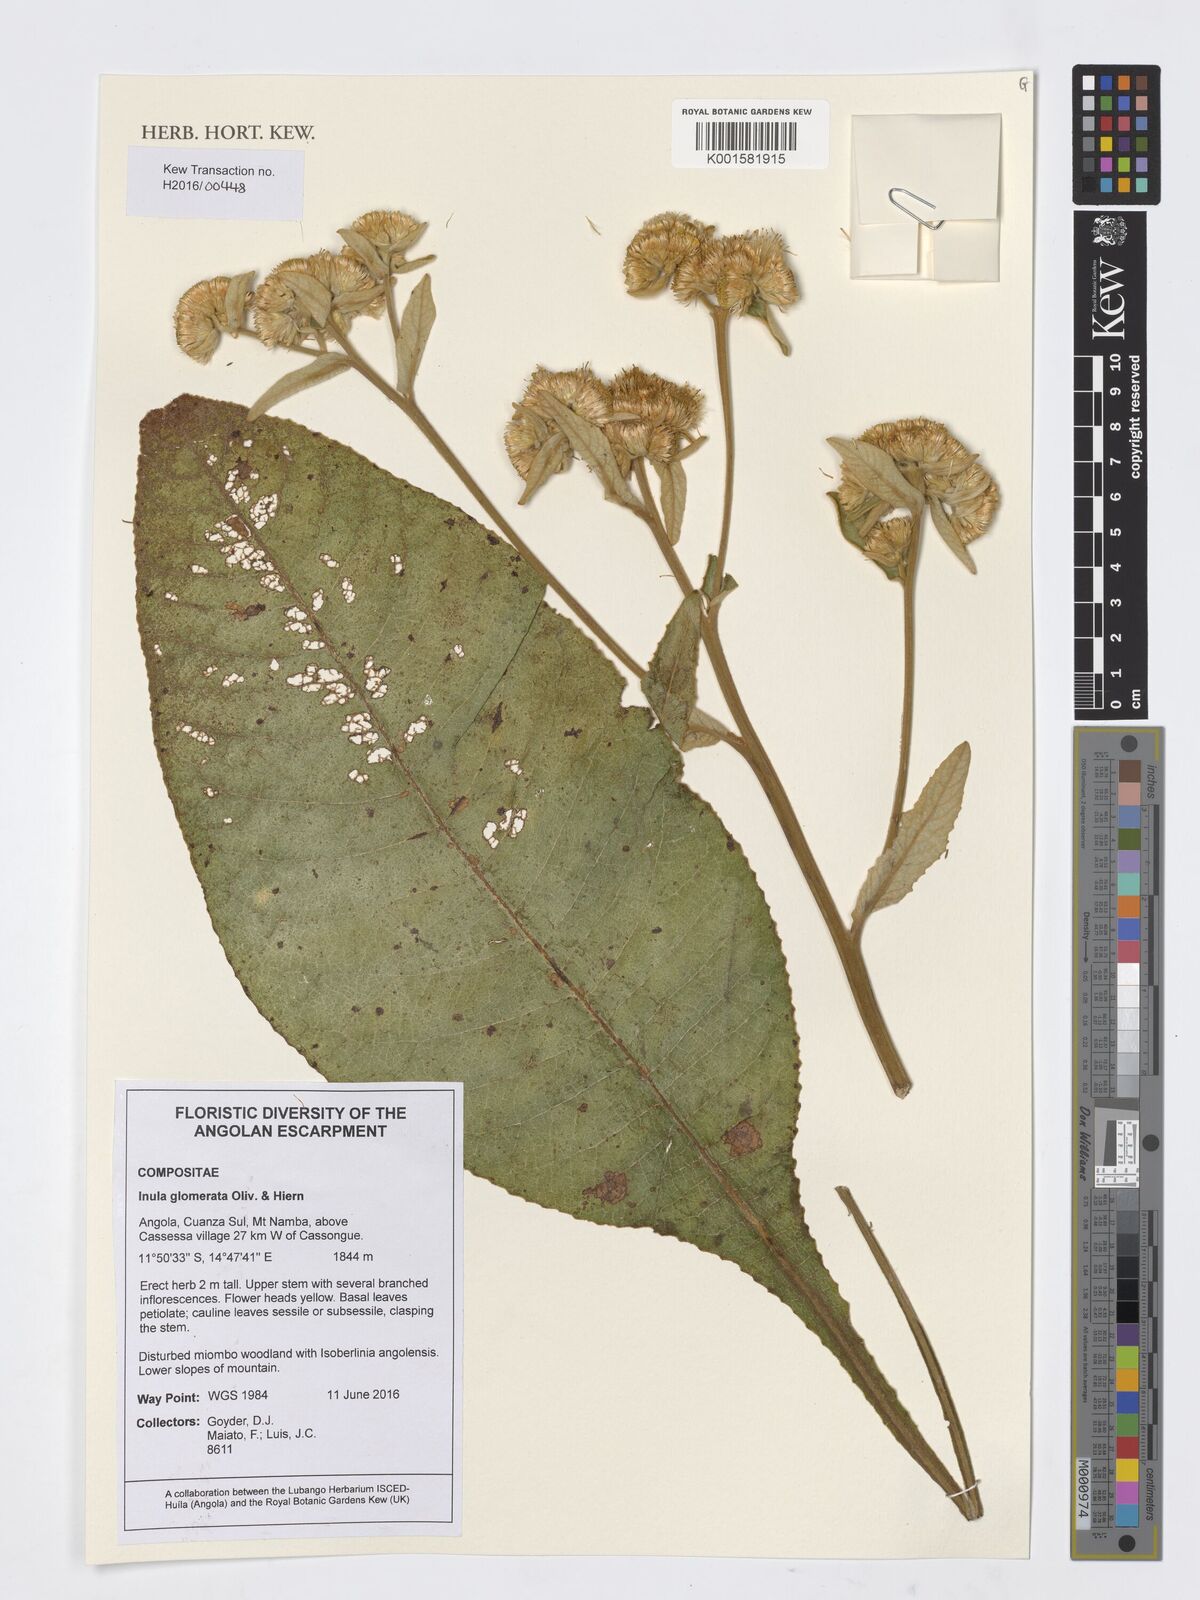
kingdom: Plantae
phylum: Tracheophyta
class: Magnoliopsida
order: Asterales
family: Asteraceae
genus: Inula
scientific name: Inula glomerata
